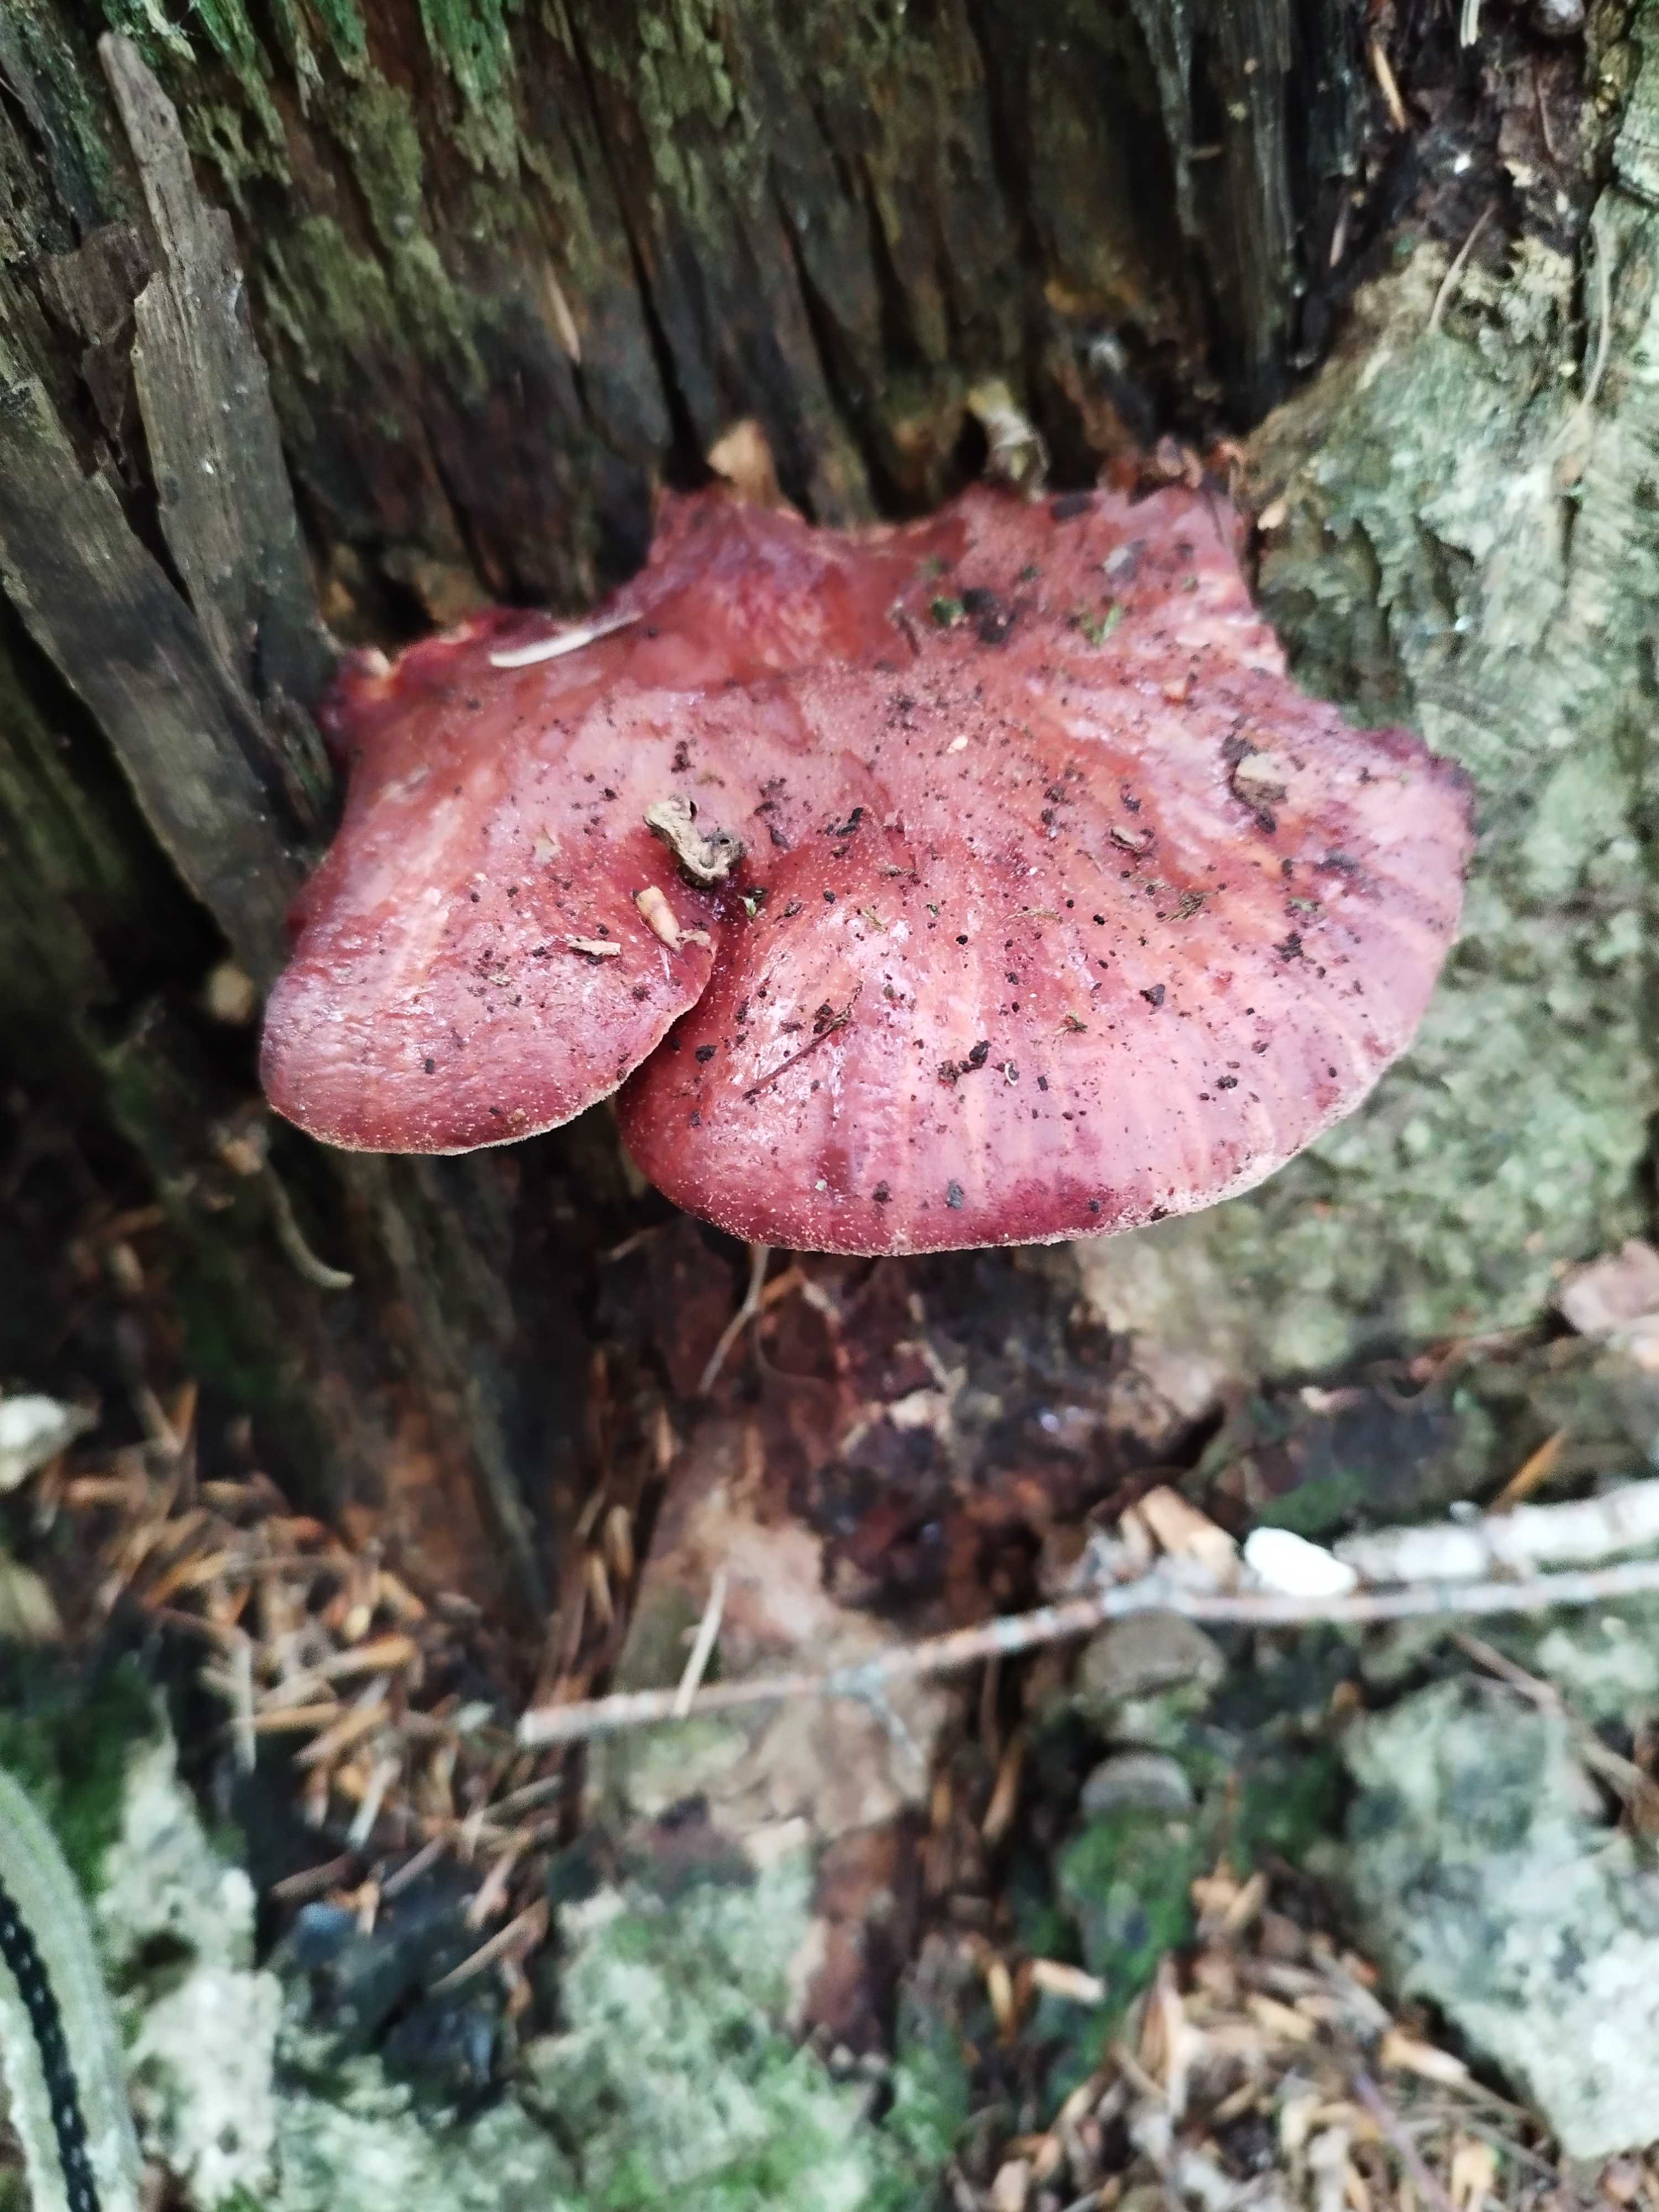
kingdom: Fungi
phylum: Basidiomycota
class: Agaricomycetes
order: Agaricales
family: Fistulinaceae
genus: Fistulina
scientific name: Fistulina hepatica
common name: oksetunge
